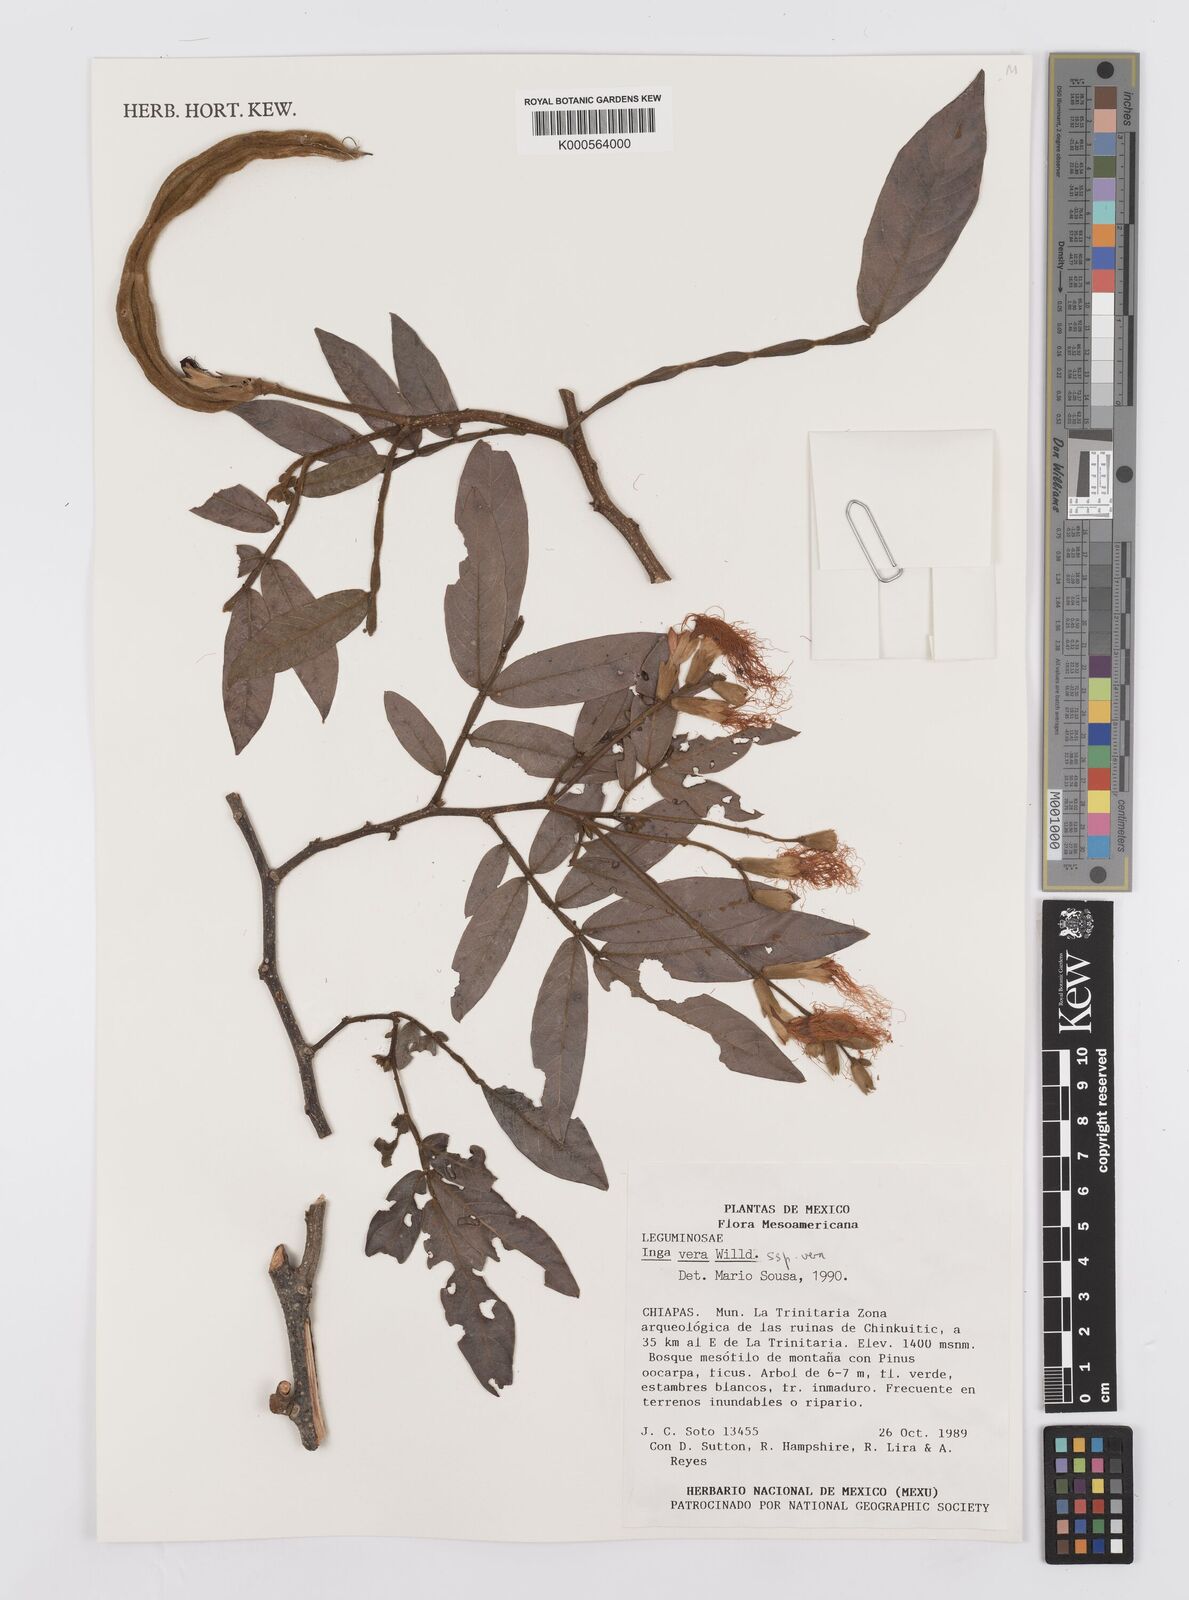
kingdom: Plantae
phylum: Tracheophyta
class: Magnoliopsida
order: Fabales
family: Fabaceae
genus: Inga
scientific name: Inga vera
